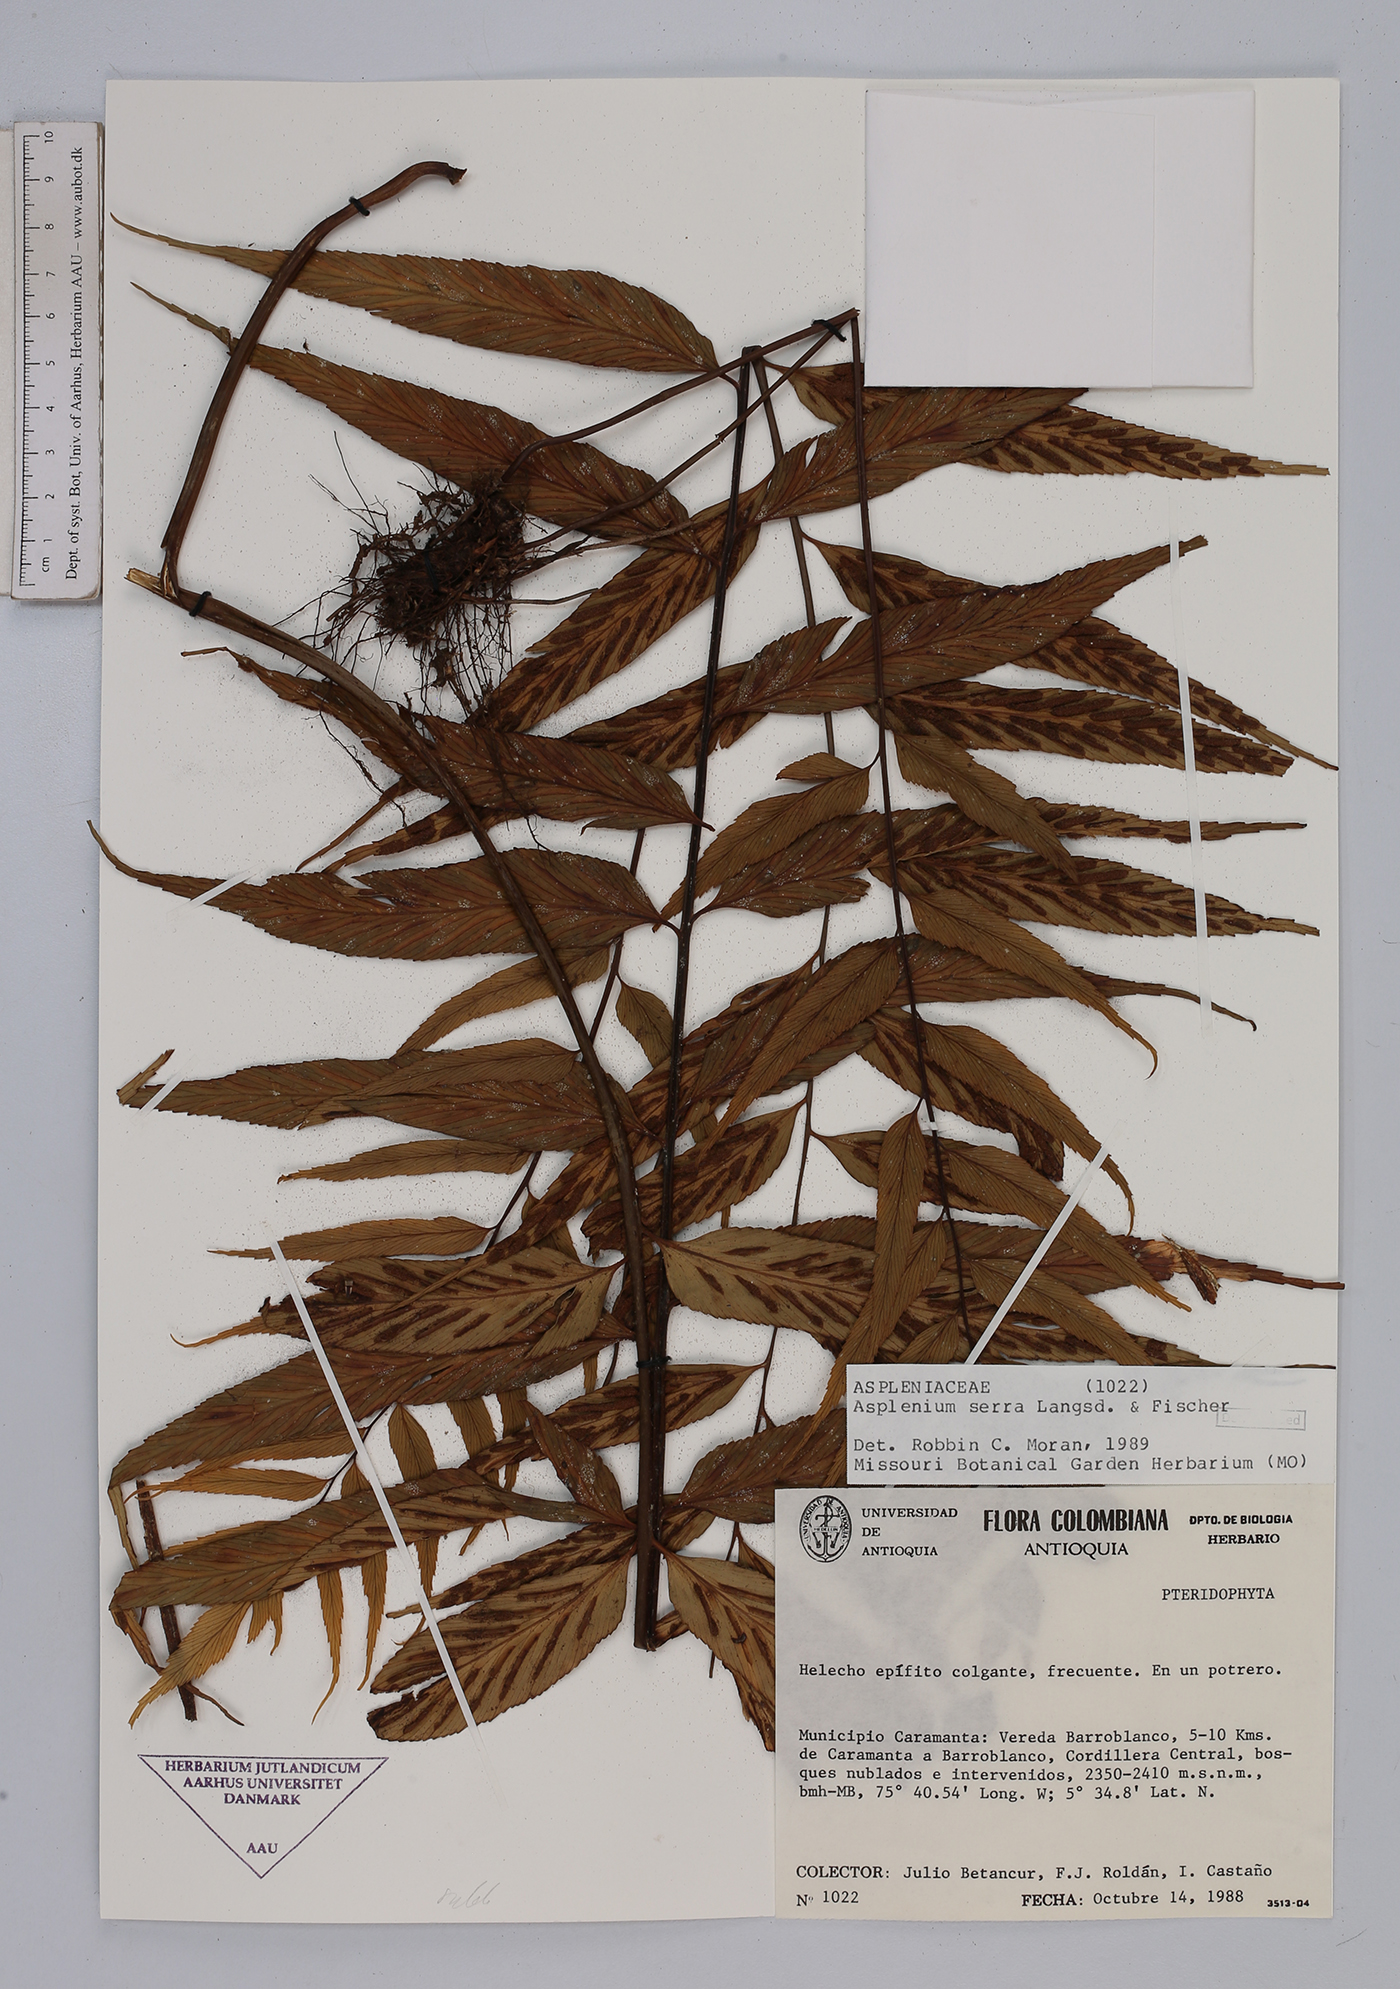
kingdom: Plantae
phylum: Tracheophyta
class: Polypodiopsida
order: Polypodiales
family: Aspleniaceae
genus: Asplenium
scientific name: Asplenium serra
